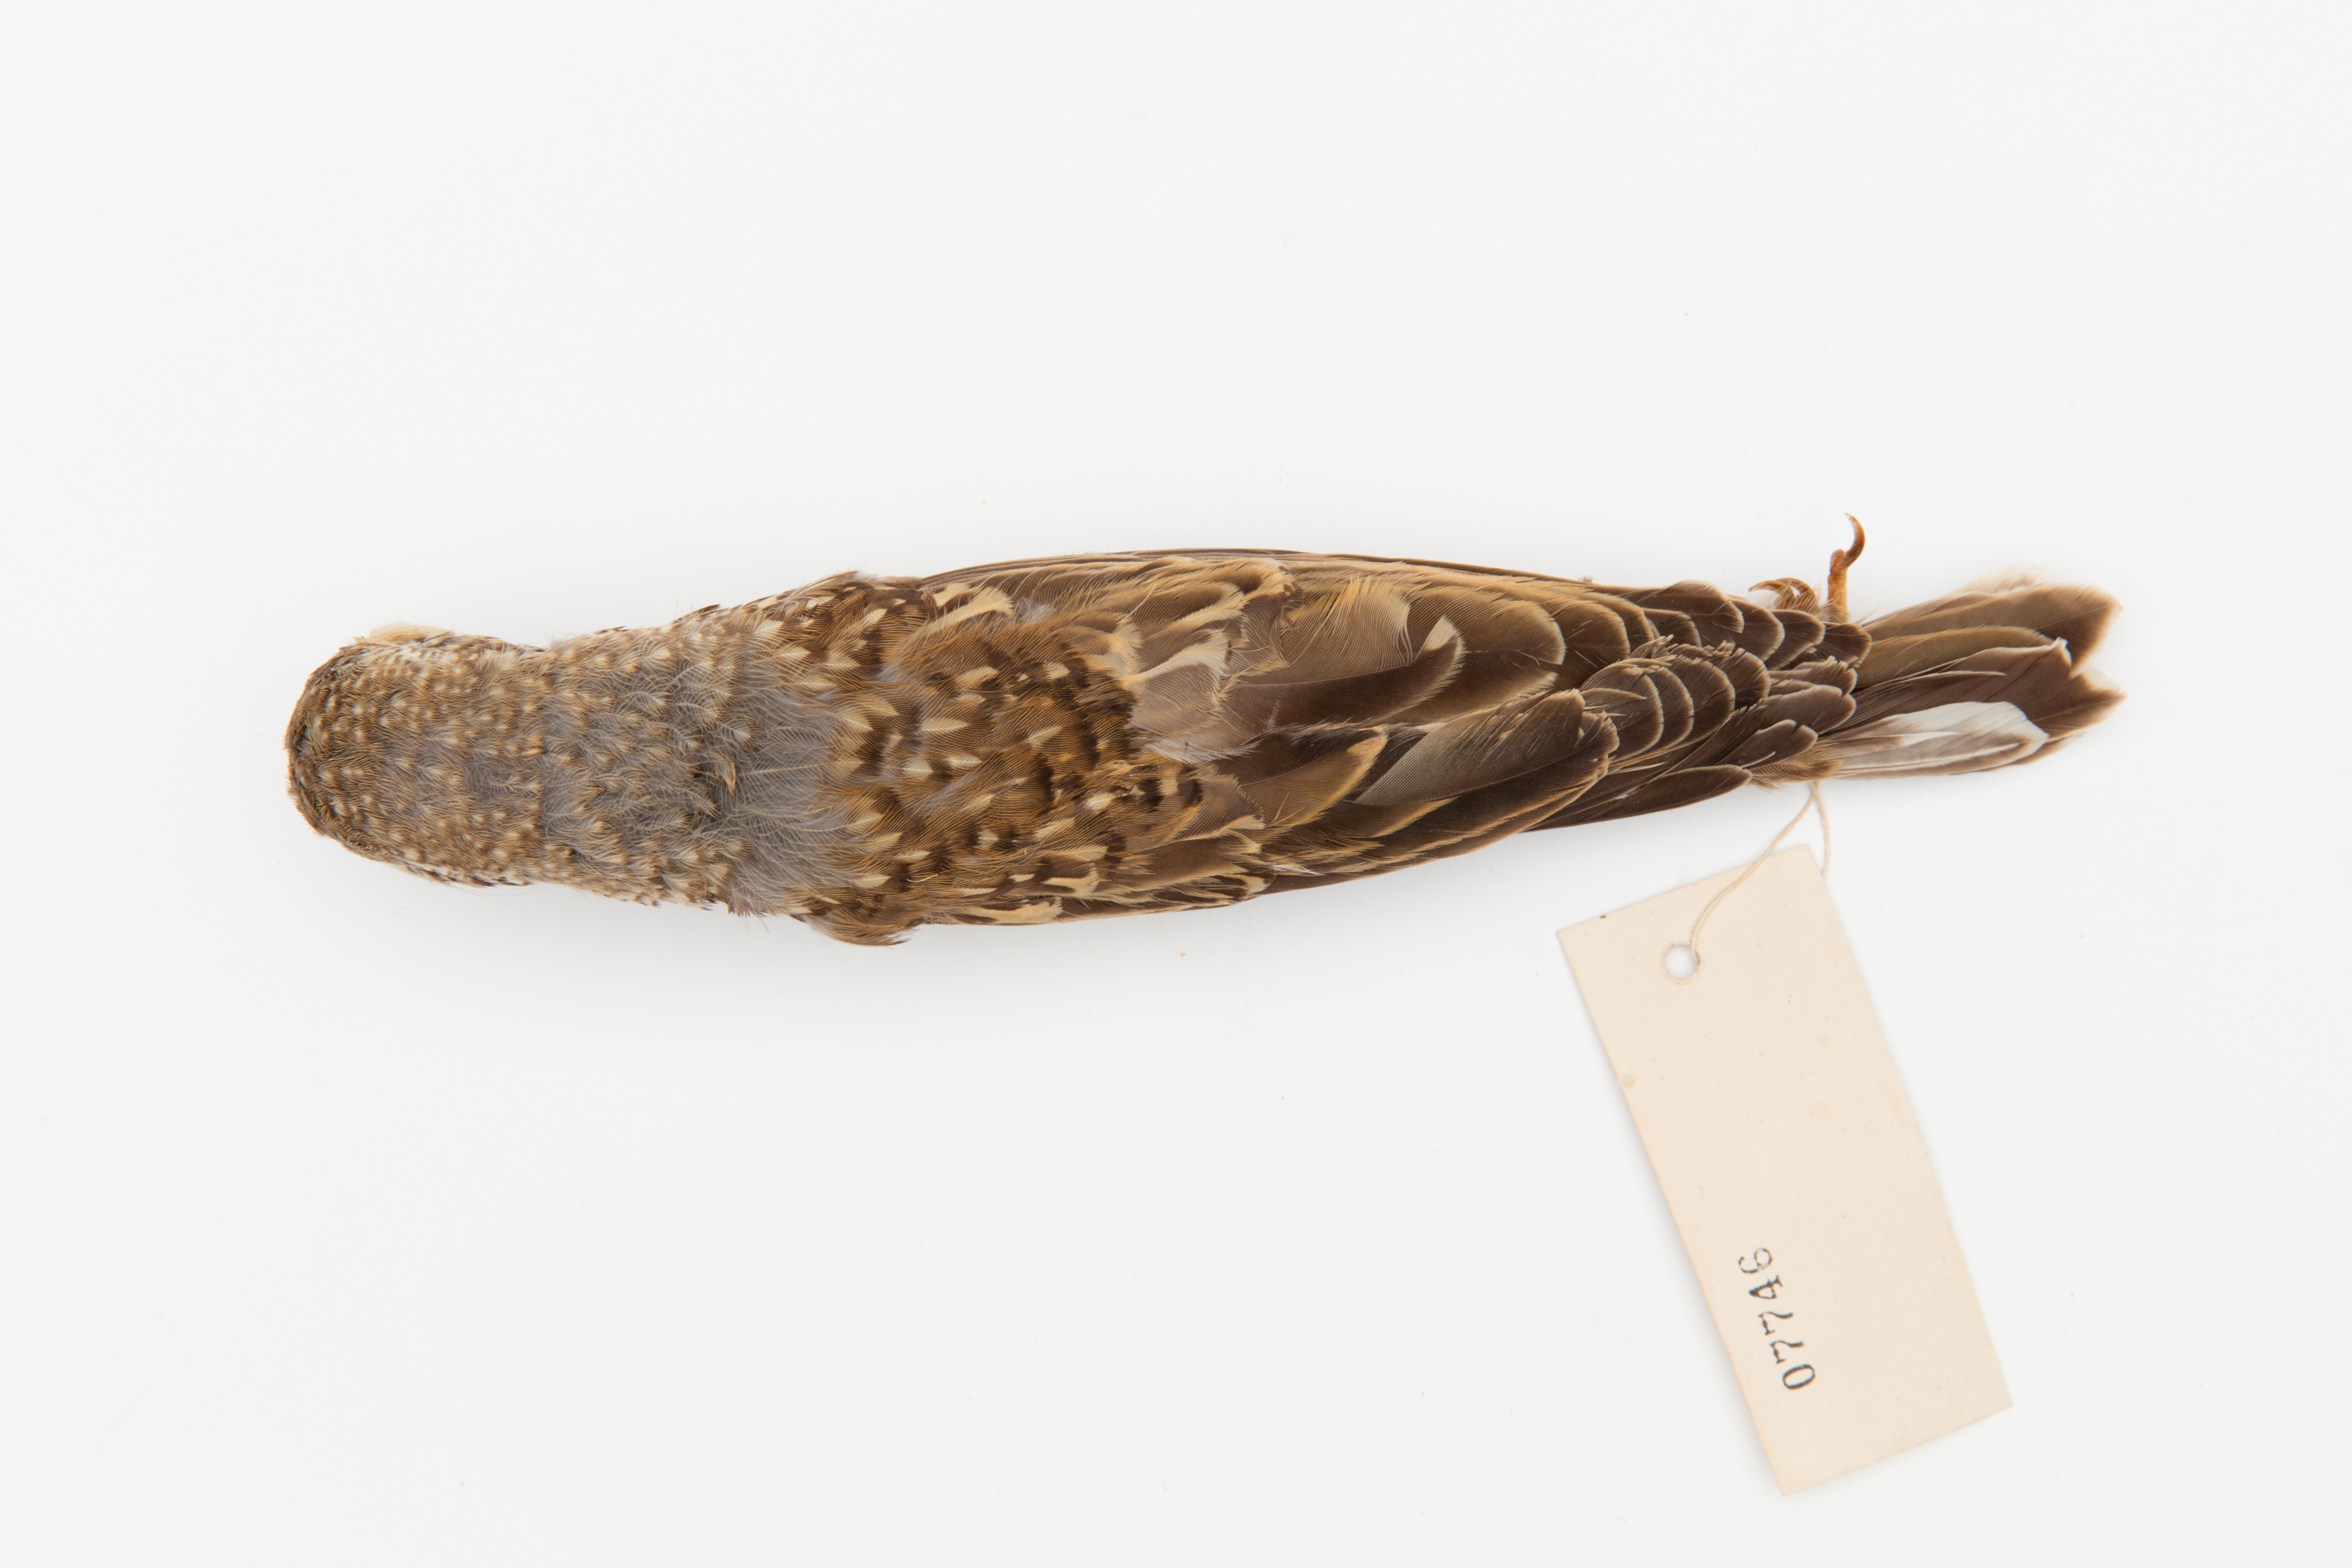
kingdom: Animalia
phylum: Chordata
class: Aves
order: Passeriformes
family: Turdidae
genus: Turdus
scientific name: Turdus viscivorus
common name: Mistle thrush
